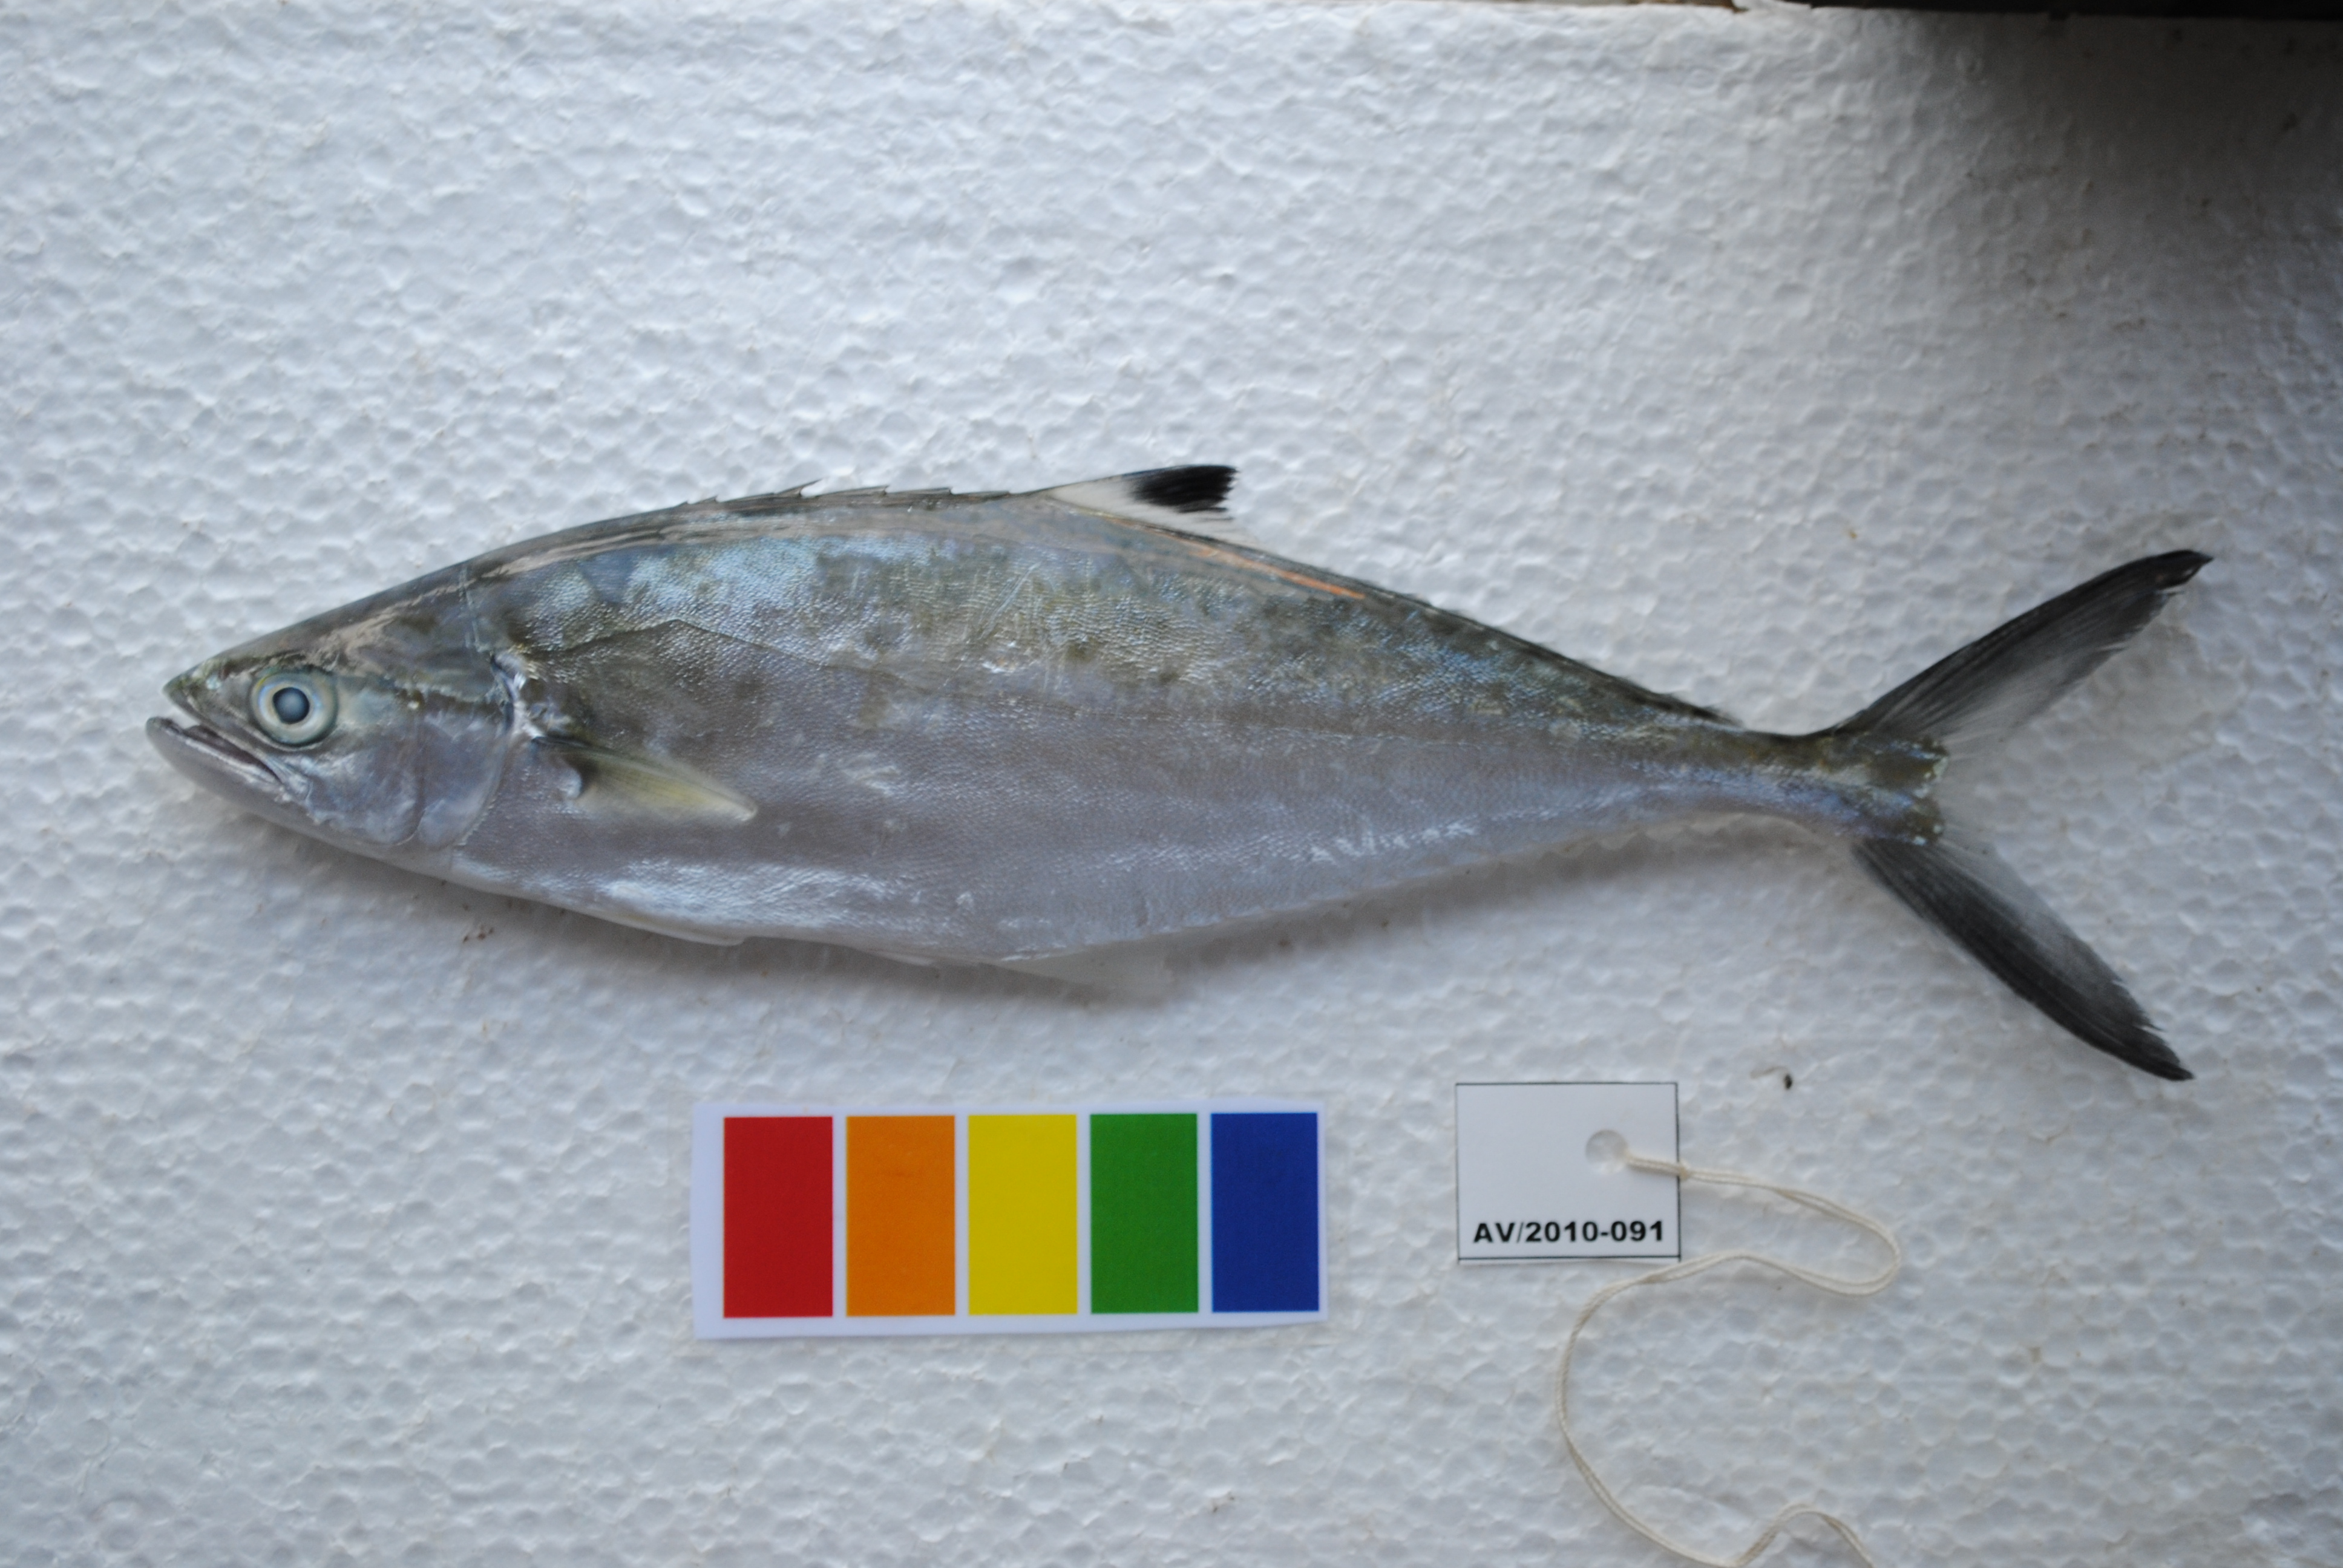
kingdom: Animalia
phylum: Chordata
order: Perciformes
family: Carangidae
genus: Scomberoides
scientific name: Scomberoides tol
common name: Needlescaled queenfish
